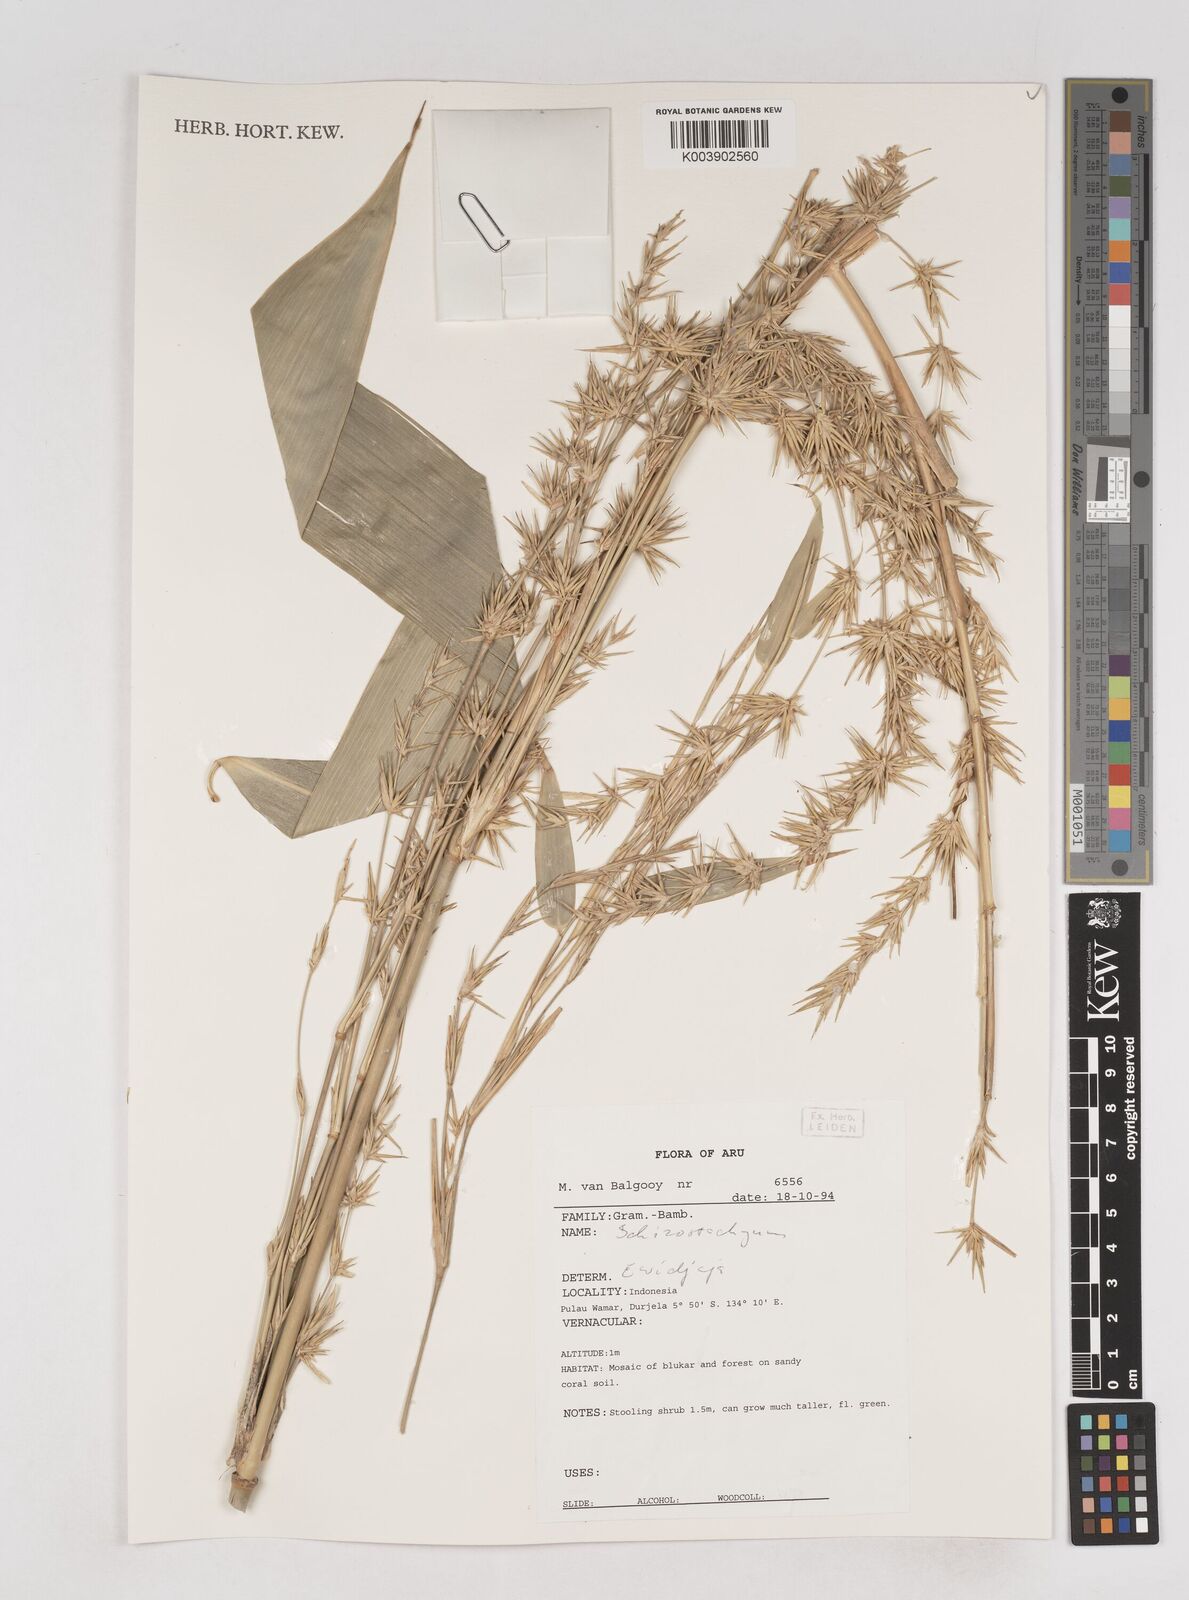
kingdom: Plantae
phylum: Tracheophyta
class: Liliopsida
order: Poales
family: Poaceae
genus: Schizostachyum
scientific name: Schizostachyum
